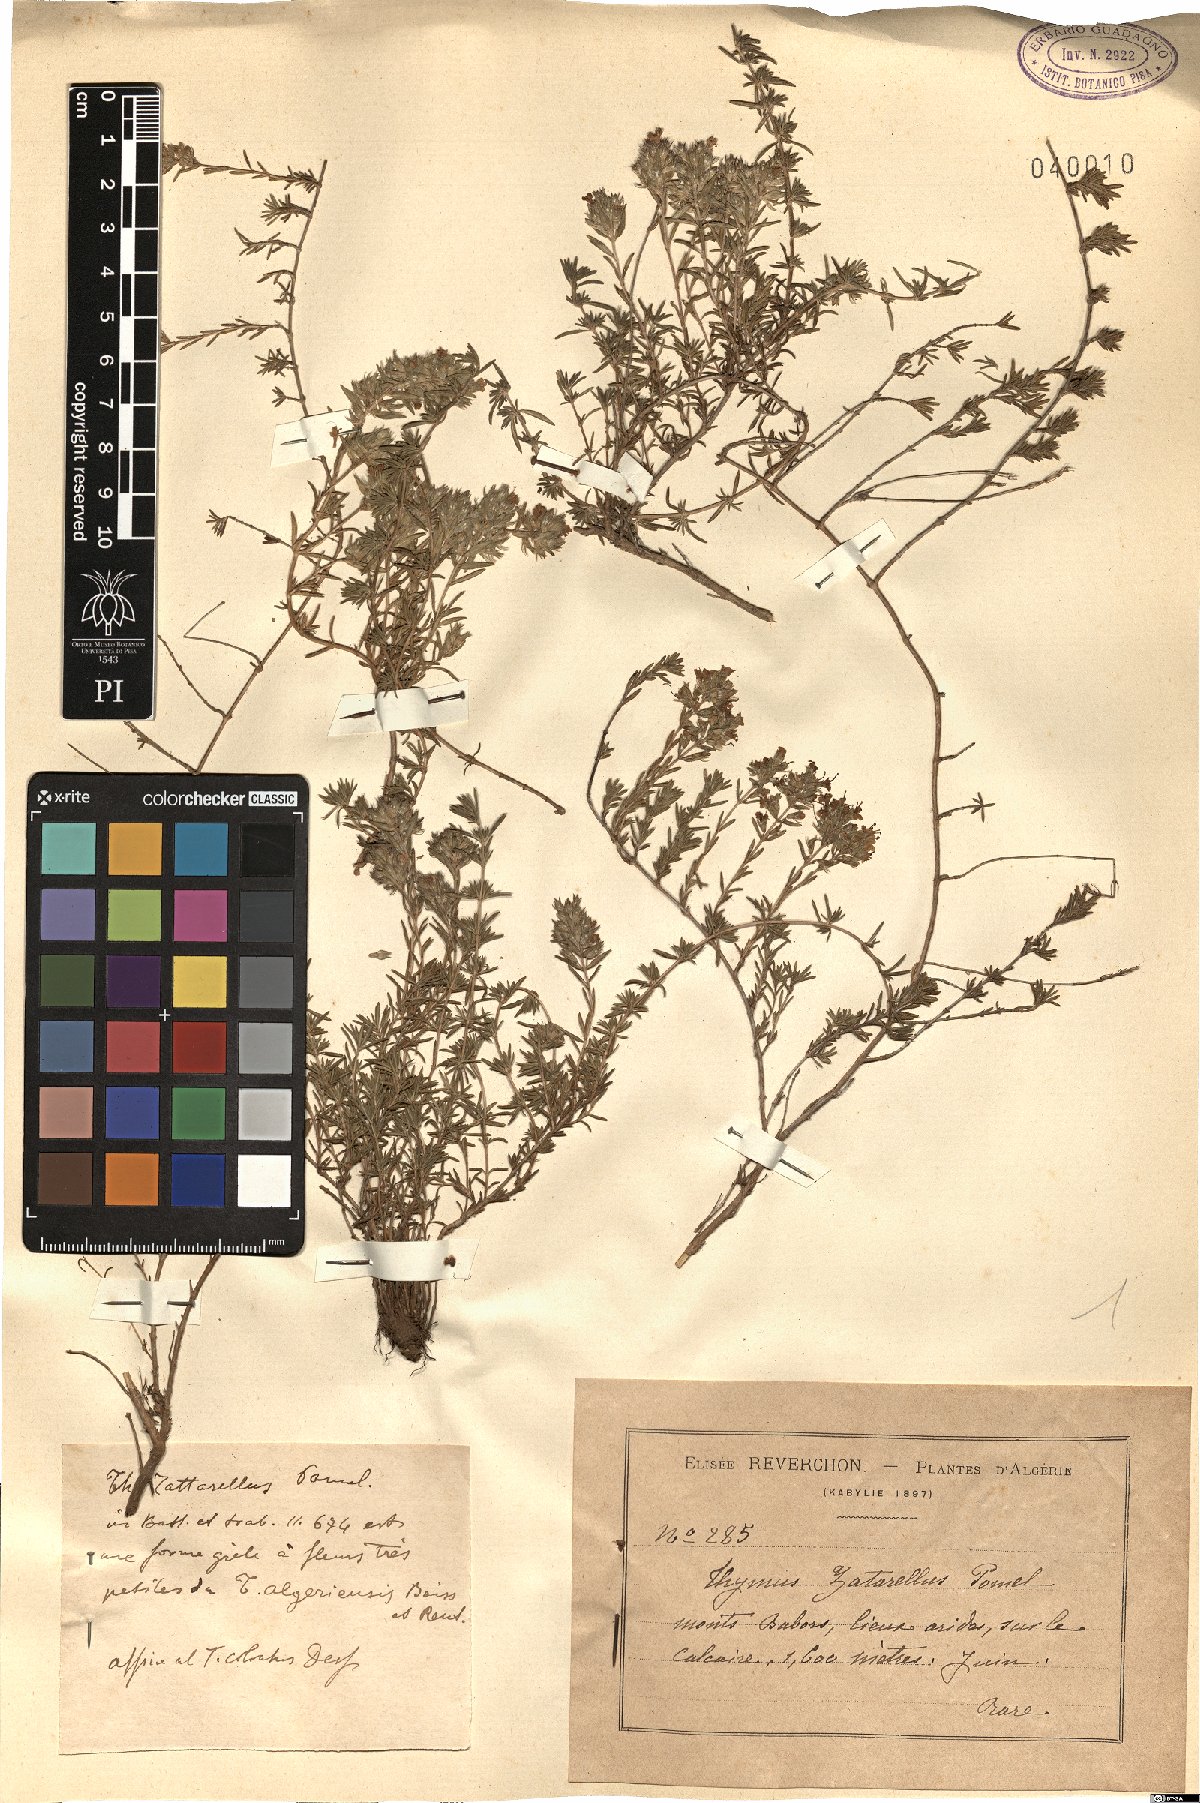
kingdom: Plantae
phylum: Tracheophyta
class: Magnoliopsida
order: Lamiales
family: Lamiaceae
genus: Thymus
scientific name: Thymus algeriensis
